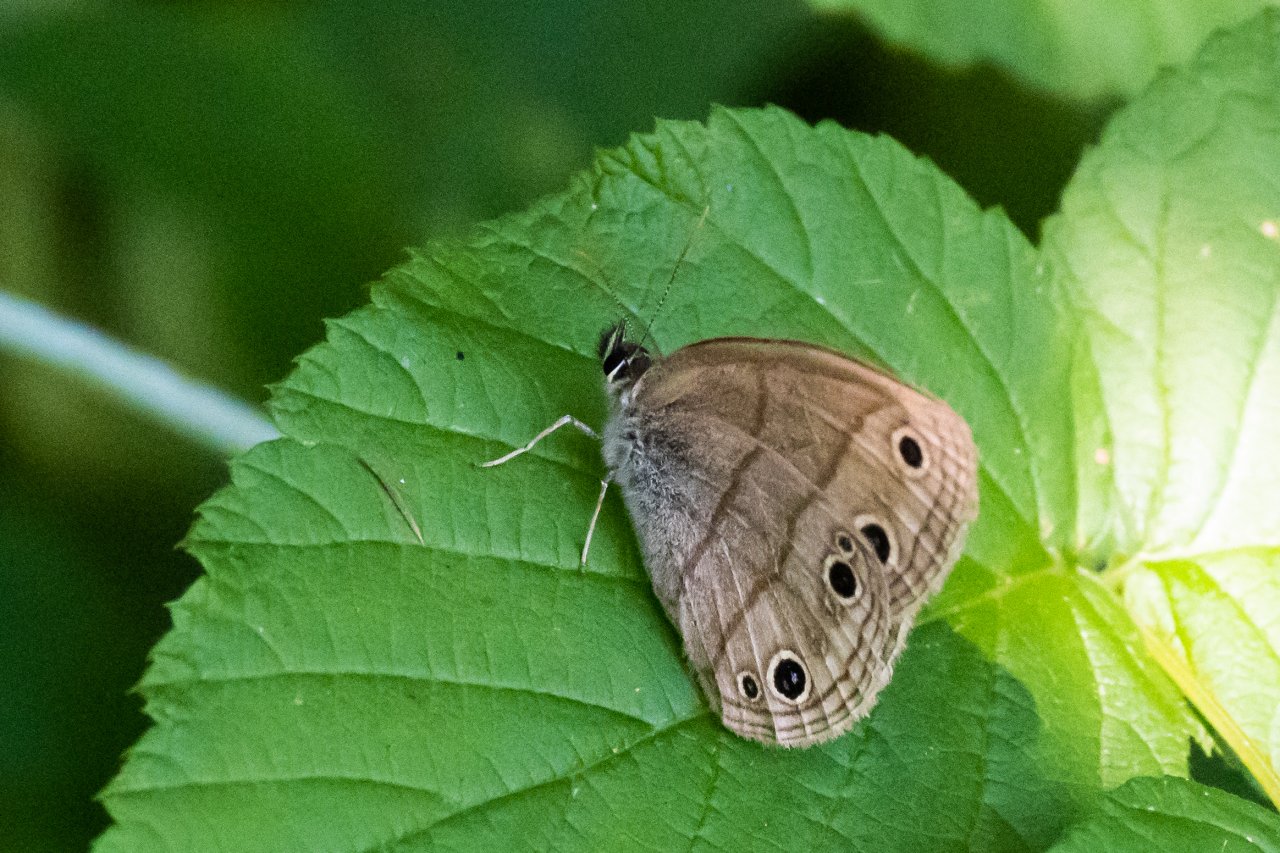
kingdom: Animalia
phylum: Arthropoda
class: Insecta
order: Lepidoptera
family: Nymphalidae
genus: Euptychia
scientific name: Euptychia cymela
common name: Little Wood Satyr
